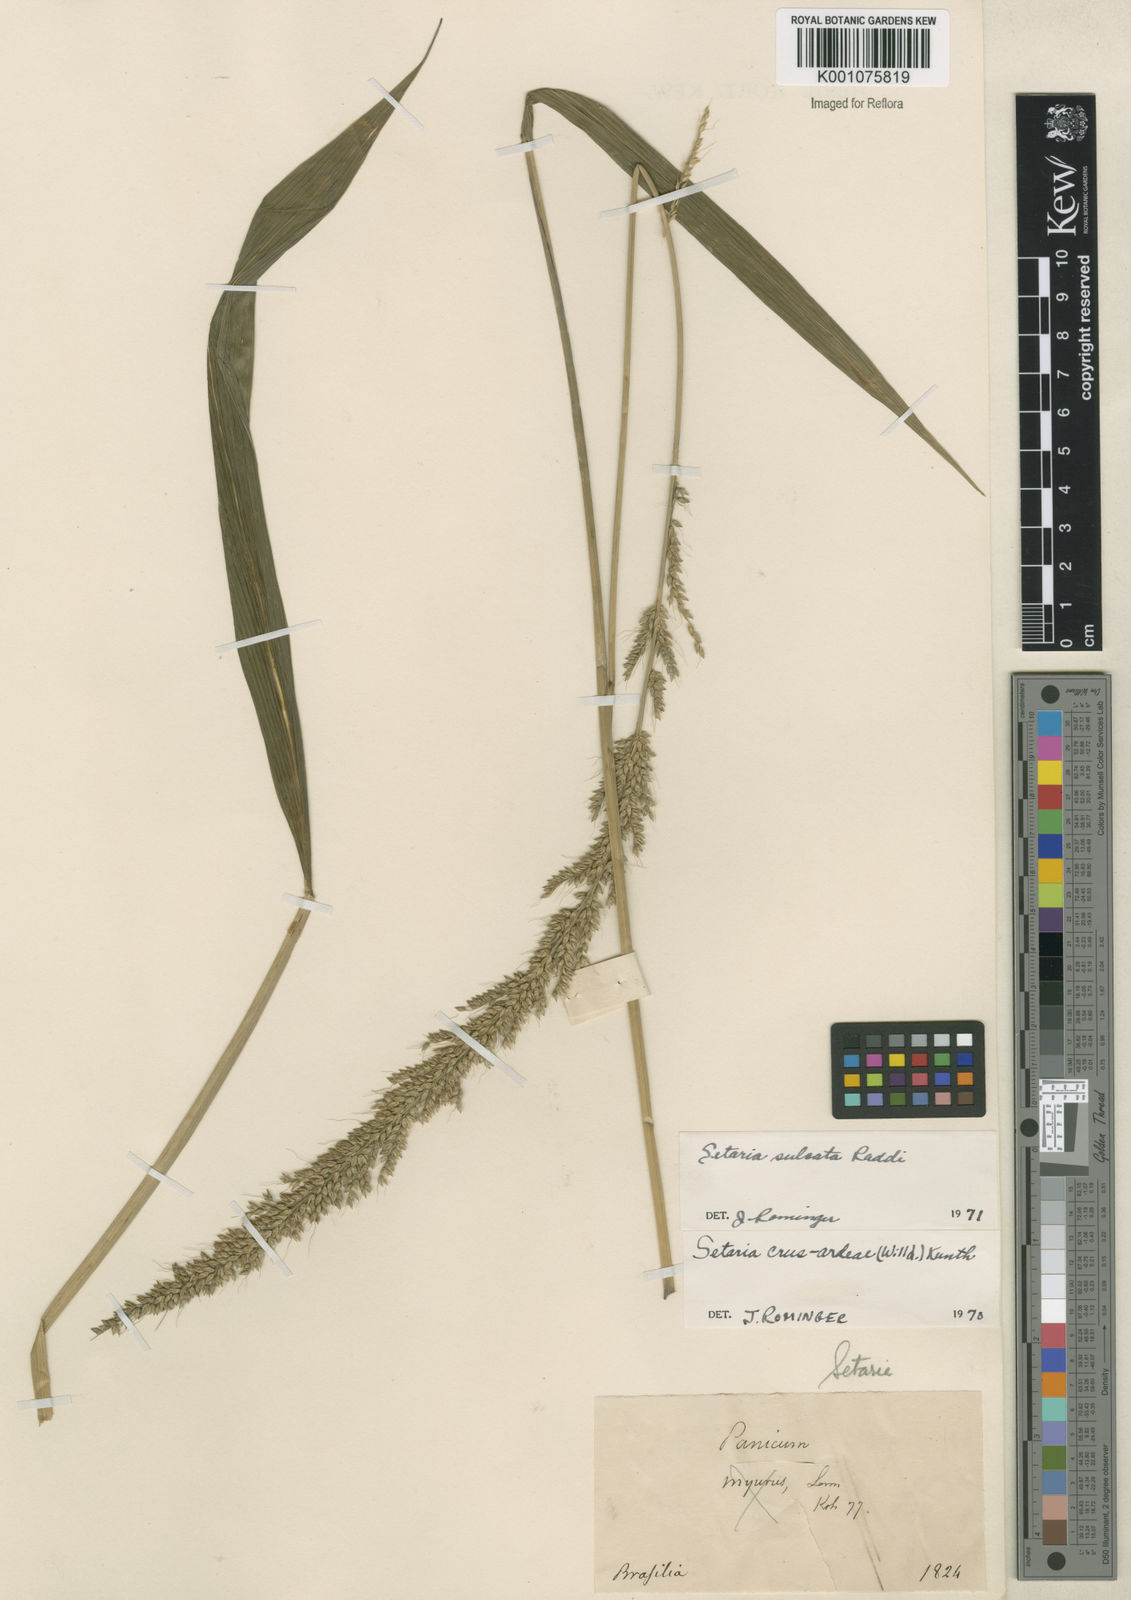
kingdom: Plantae
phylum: Tracheophyta
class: Liliopsida
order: Poales
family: Poaceae
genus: Setaria
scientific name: Setaria sulcata
